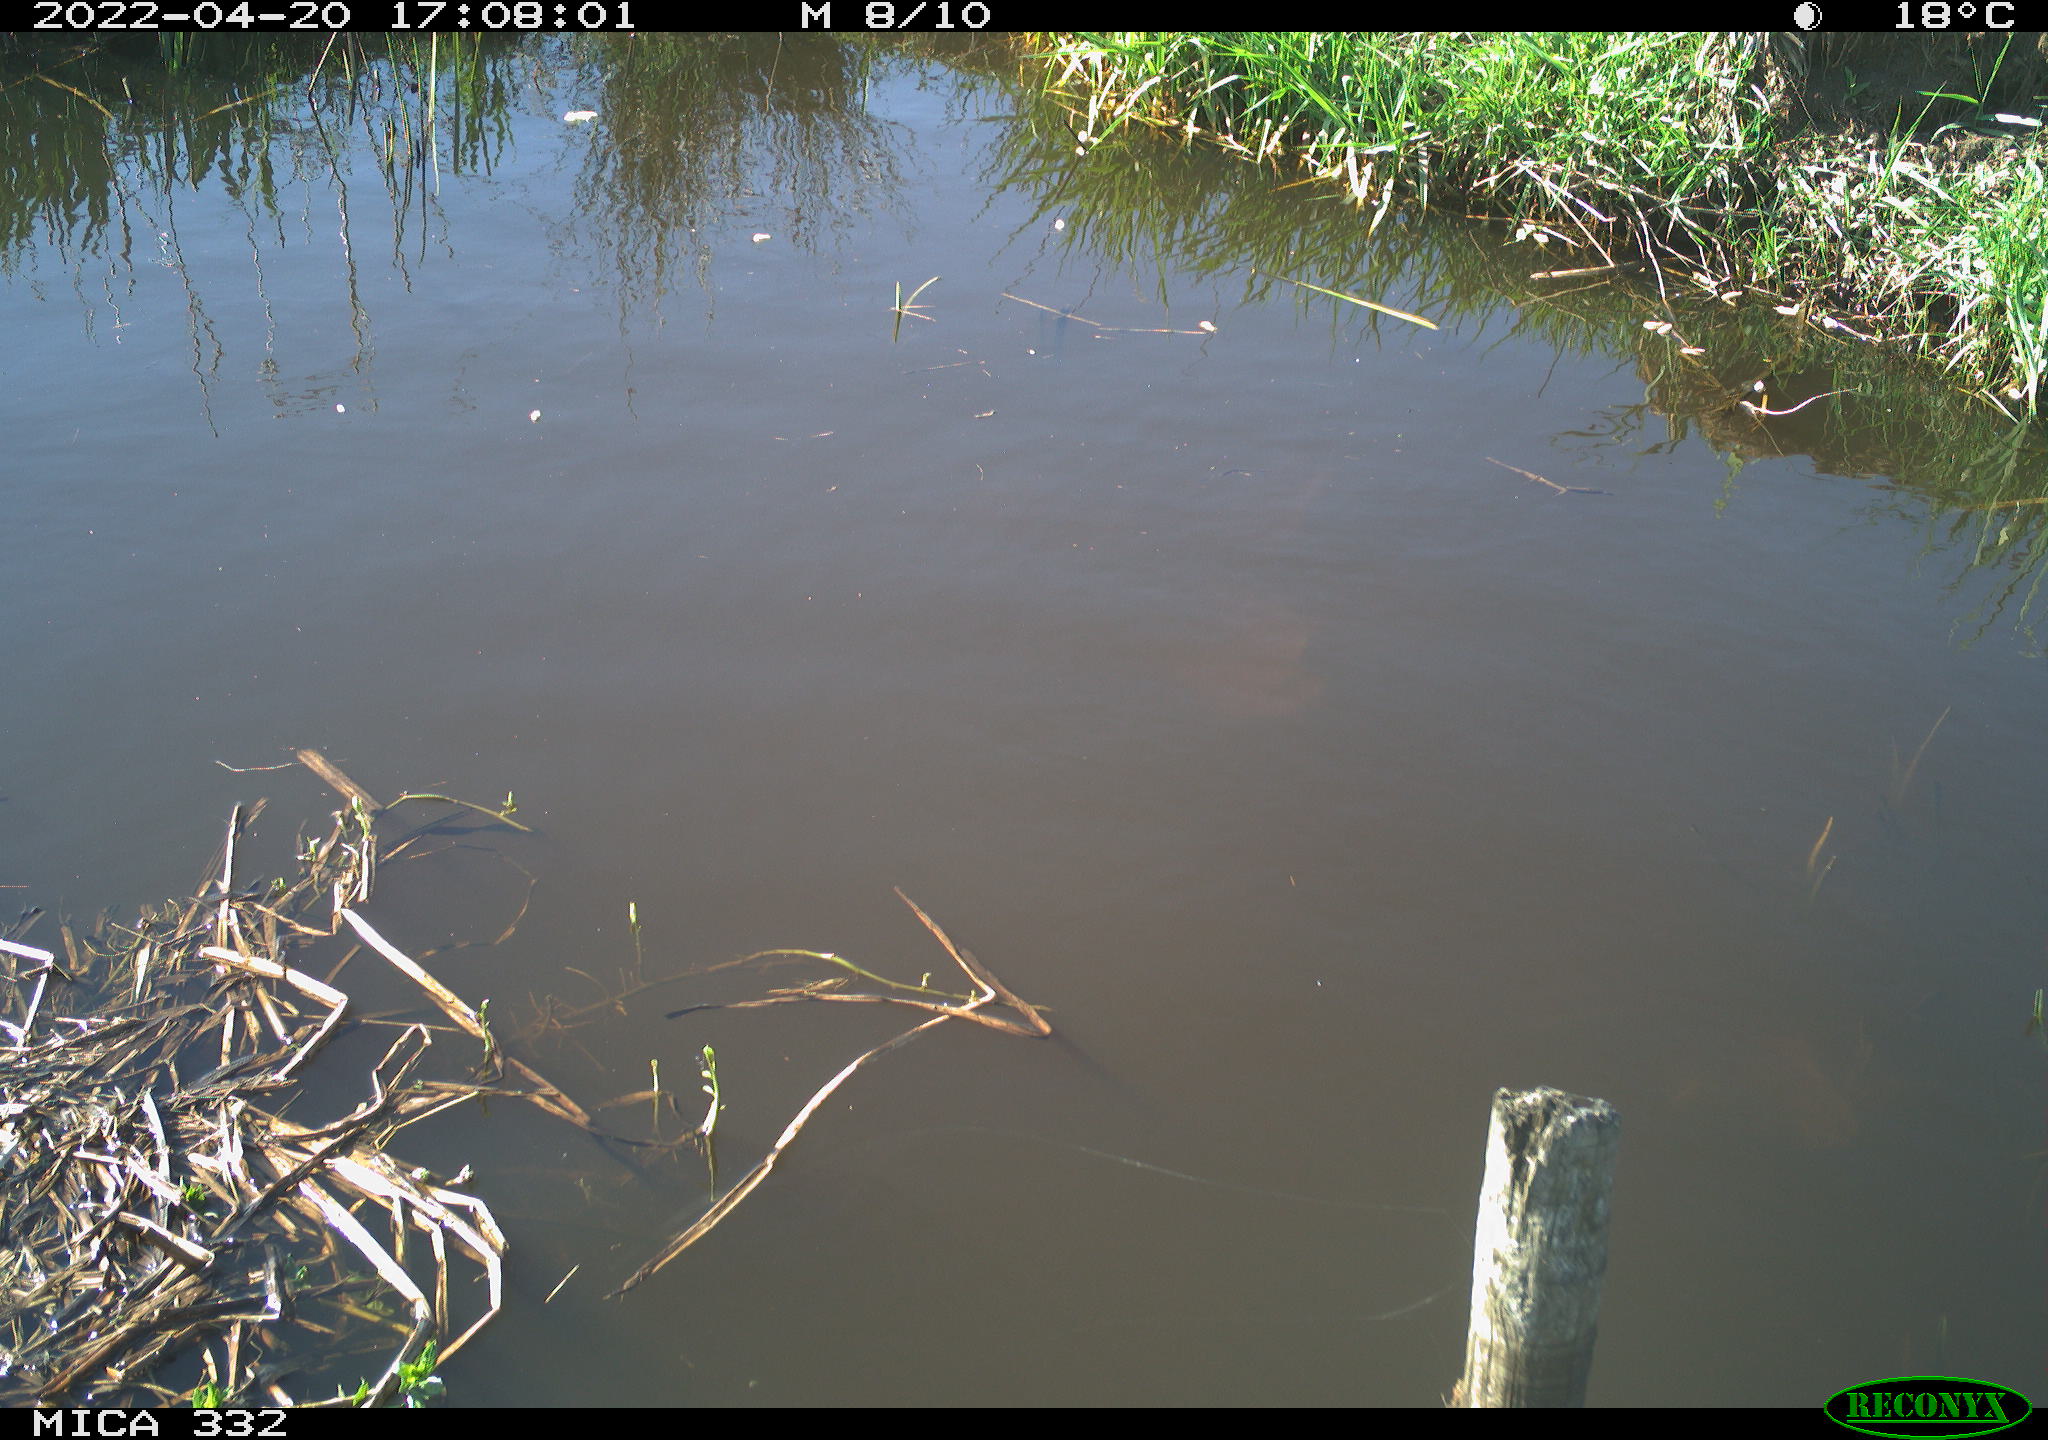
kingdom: Animalia
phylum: Chordata
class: Aves
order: Gruiformes
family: Rallidae
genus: Gallinula
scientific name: Gallinula chloropus
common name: Common moorhen
